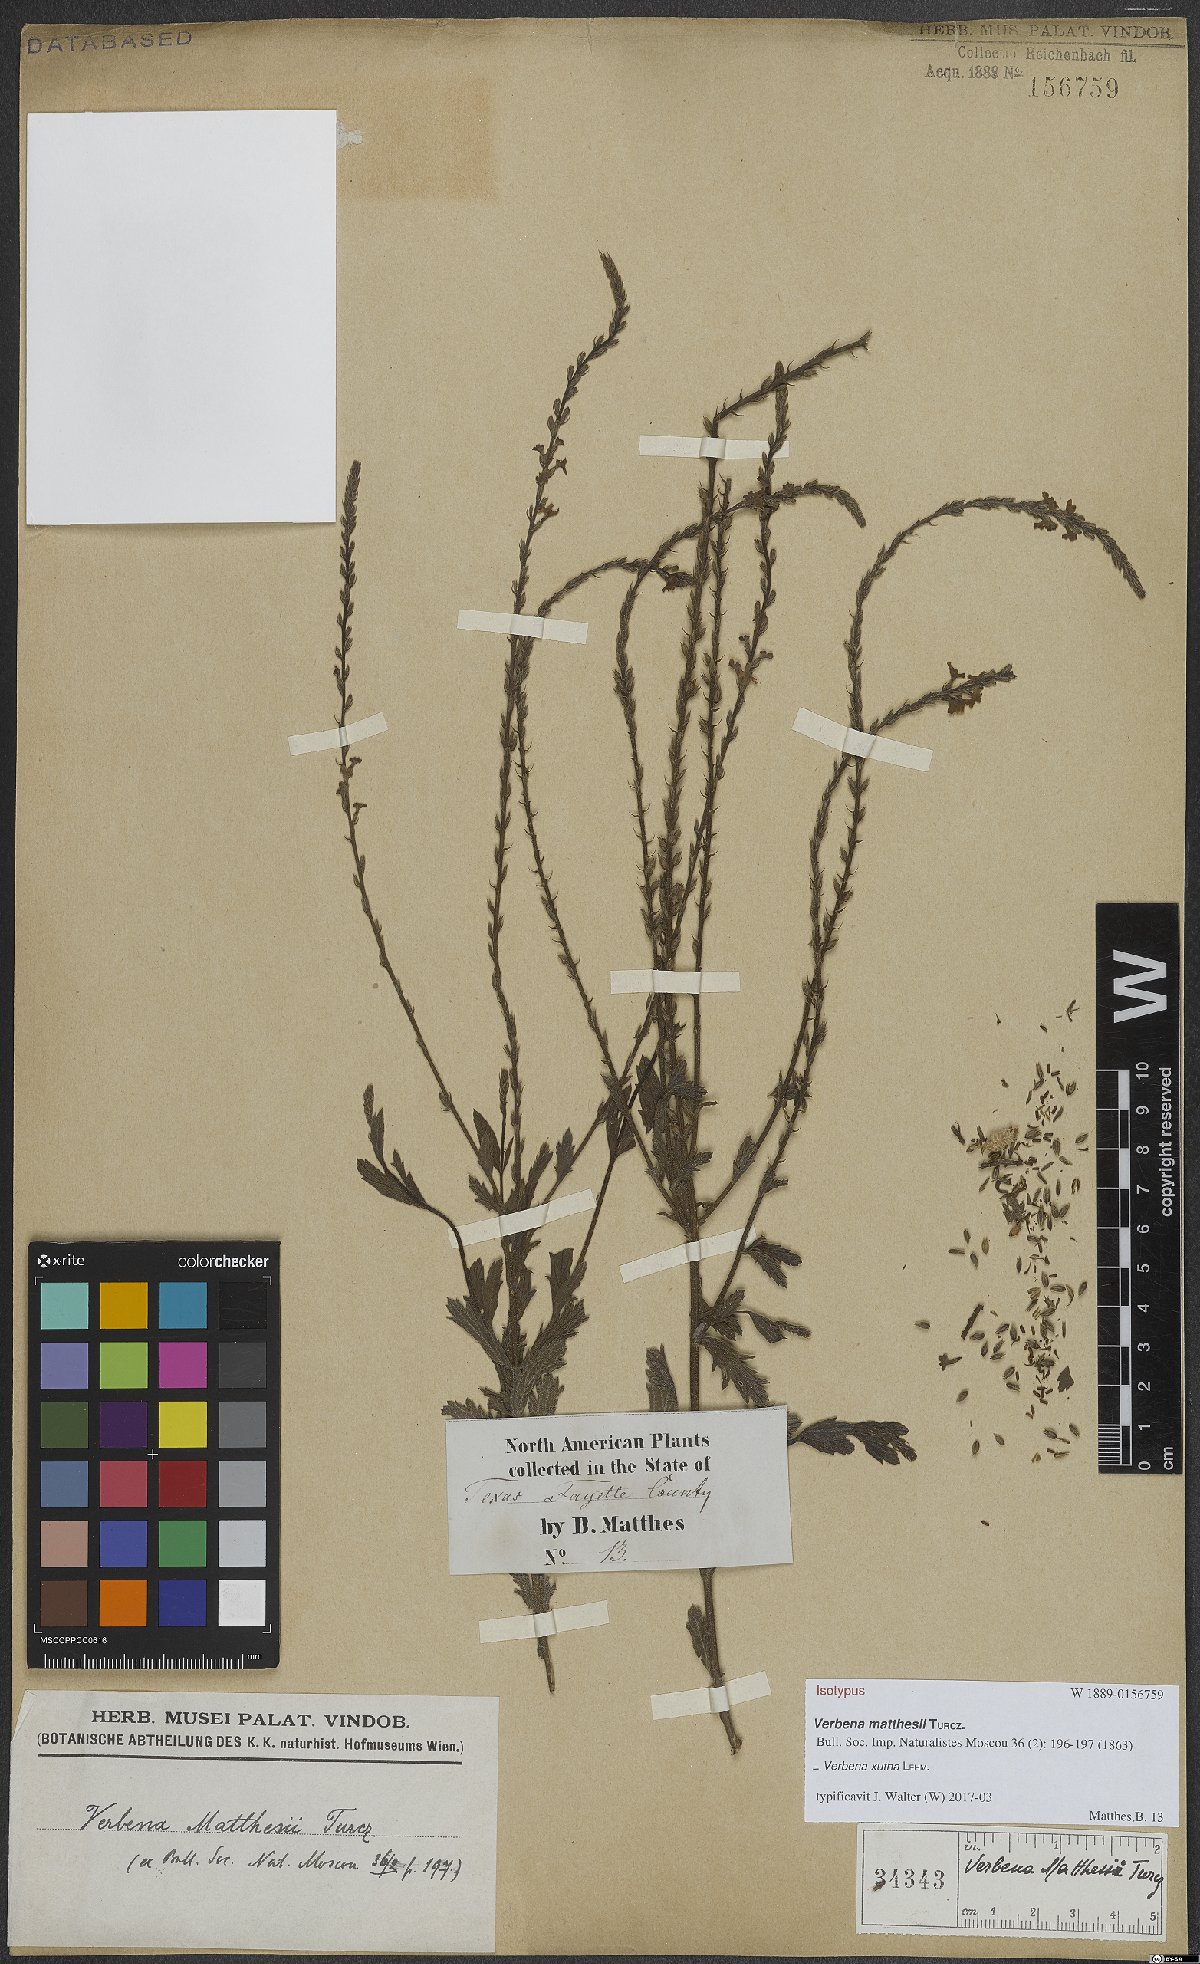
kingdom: Plantae
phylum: Tracheophyta
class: Magnoliopsida
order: Lamiales
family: Verbenaceae
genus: Verbena
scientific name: Verbena xutha
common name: Gulf vervain
